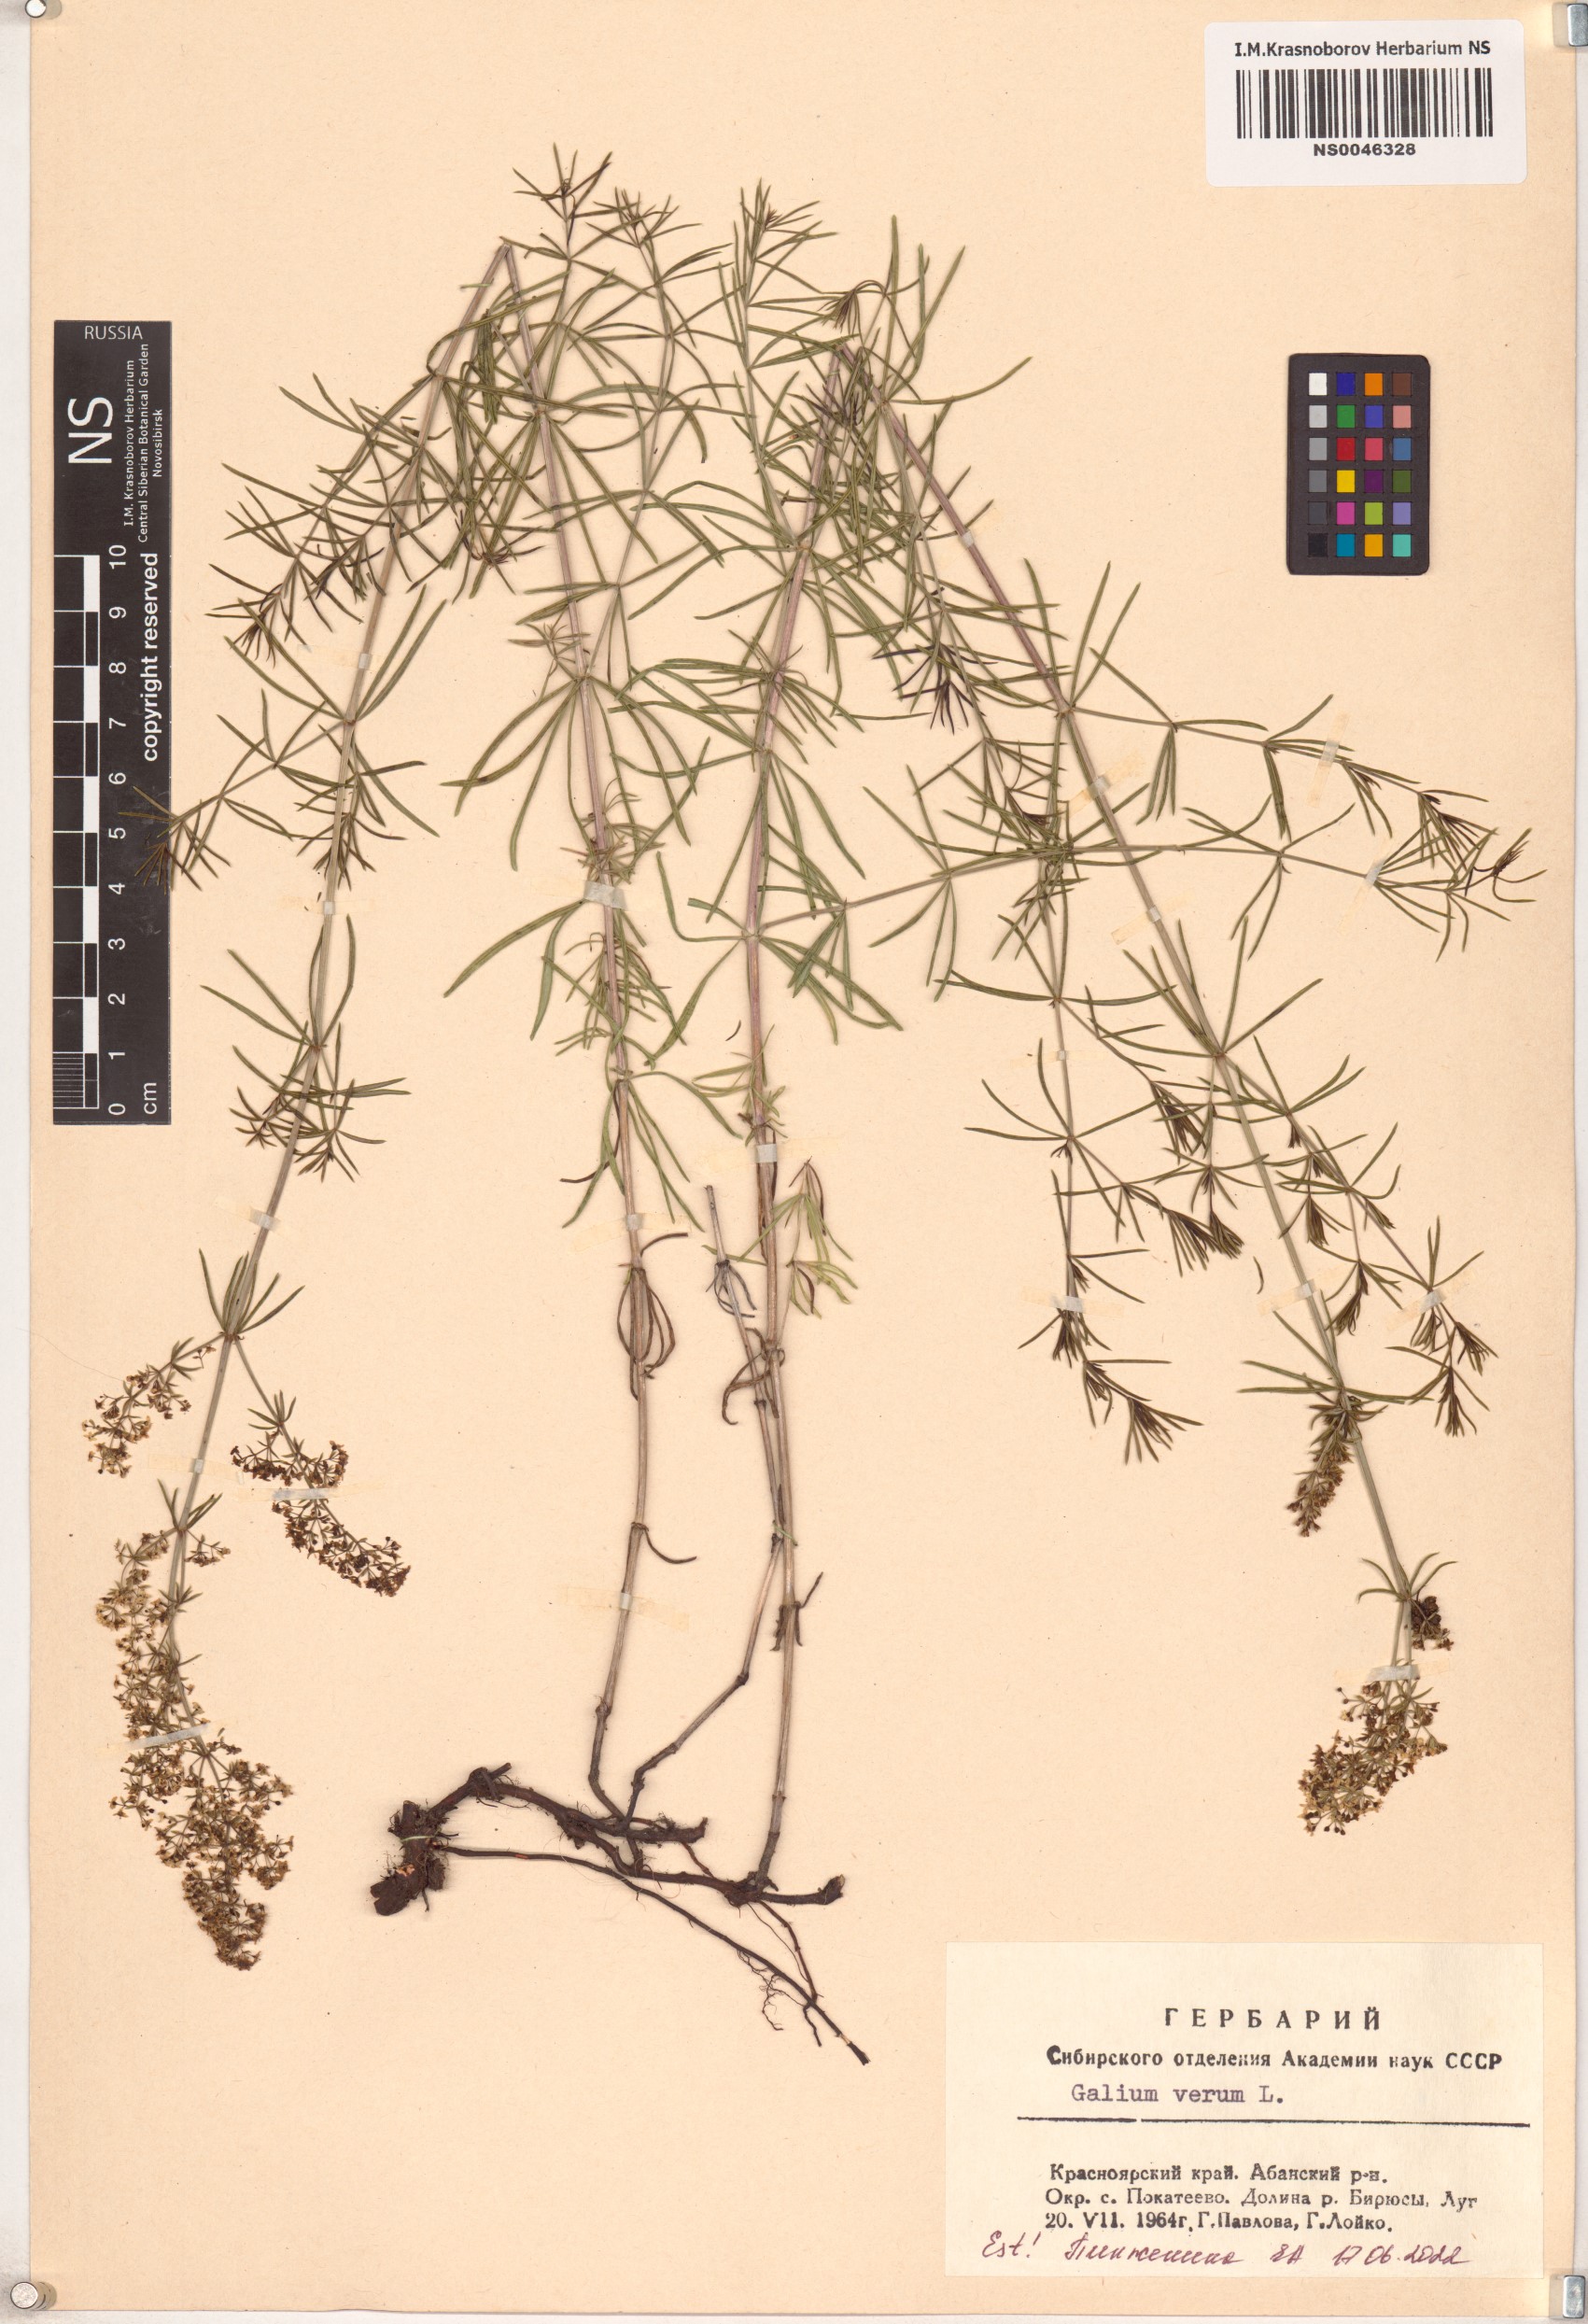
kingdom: Plantae
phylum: Tracheophyta
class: Magnoliopsida
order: Gentianales
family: Rubiaceae
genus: Galium
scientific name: Galium verum
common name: Lady's bedstraw
